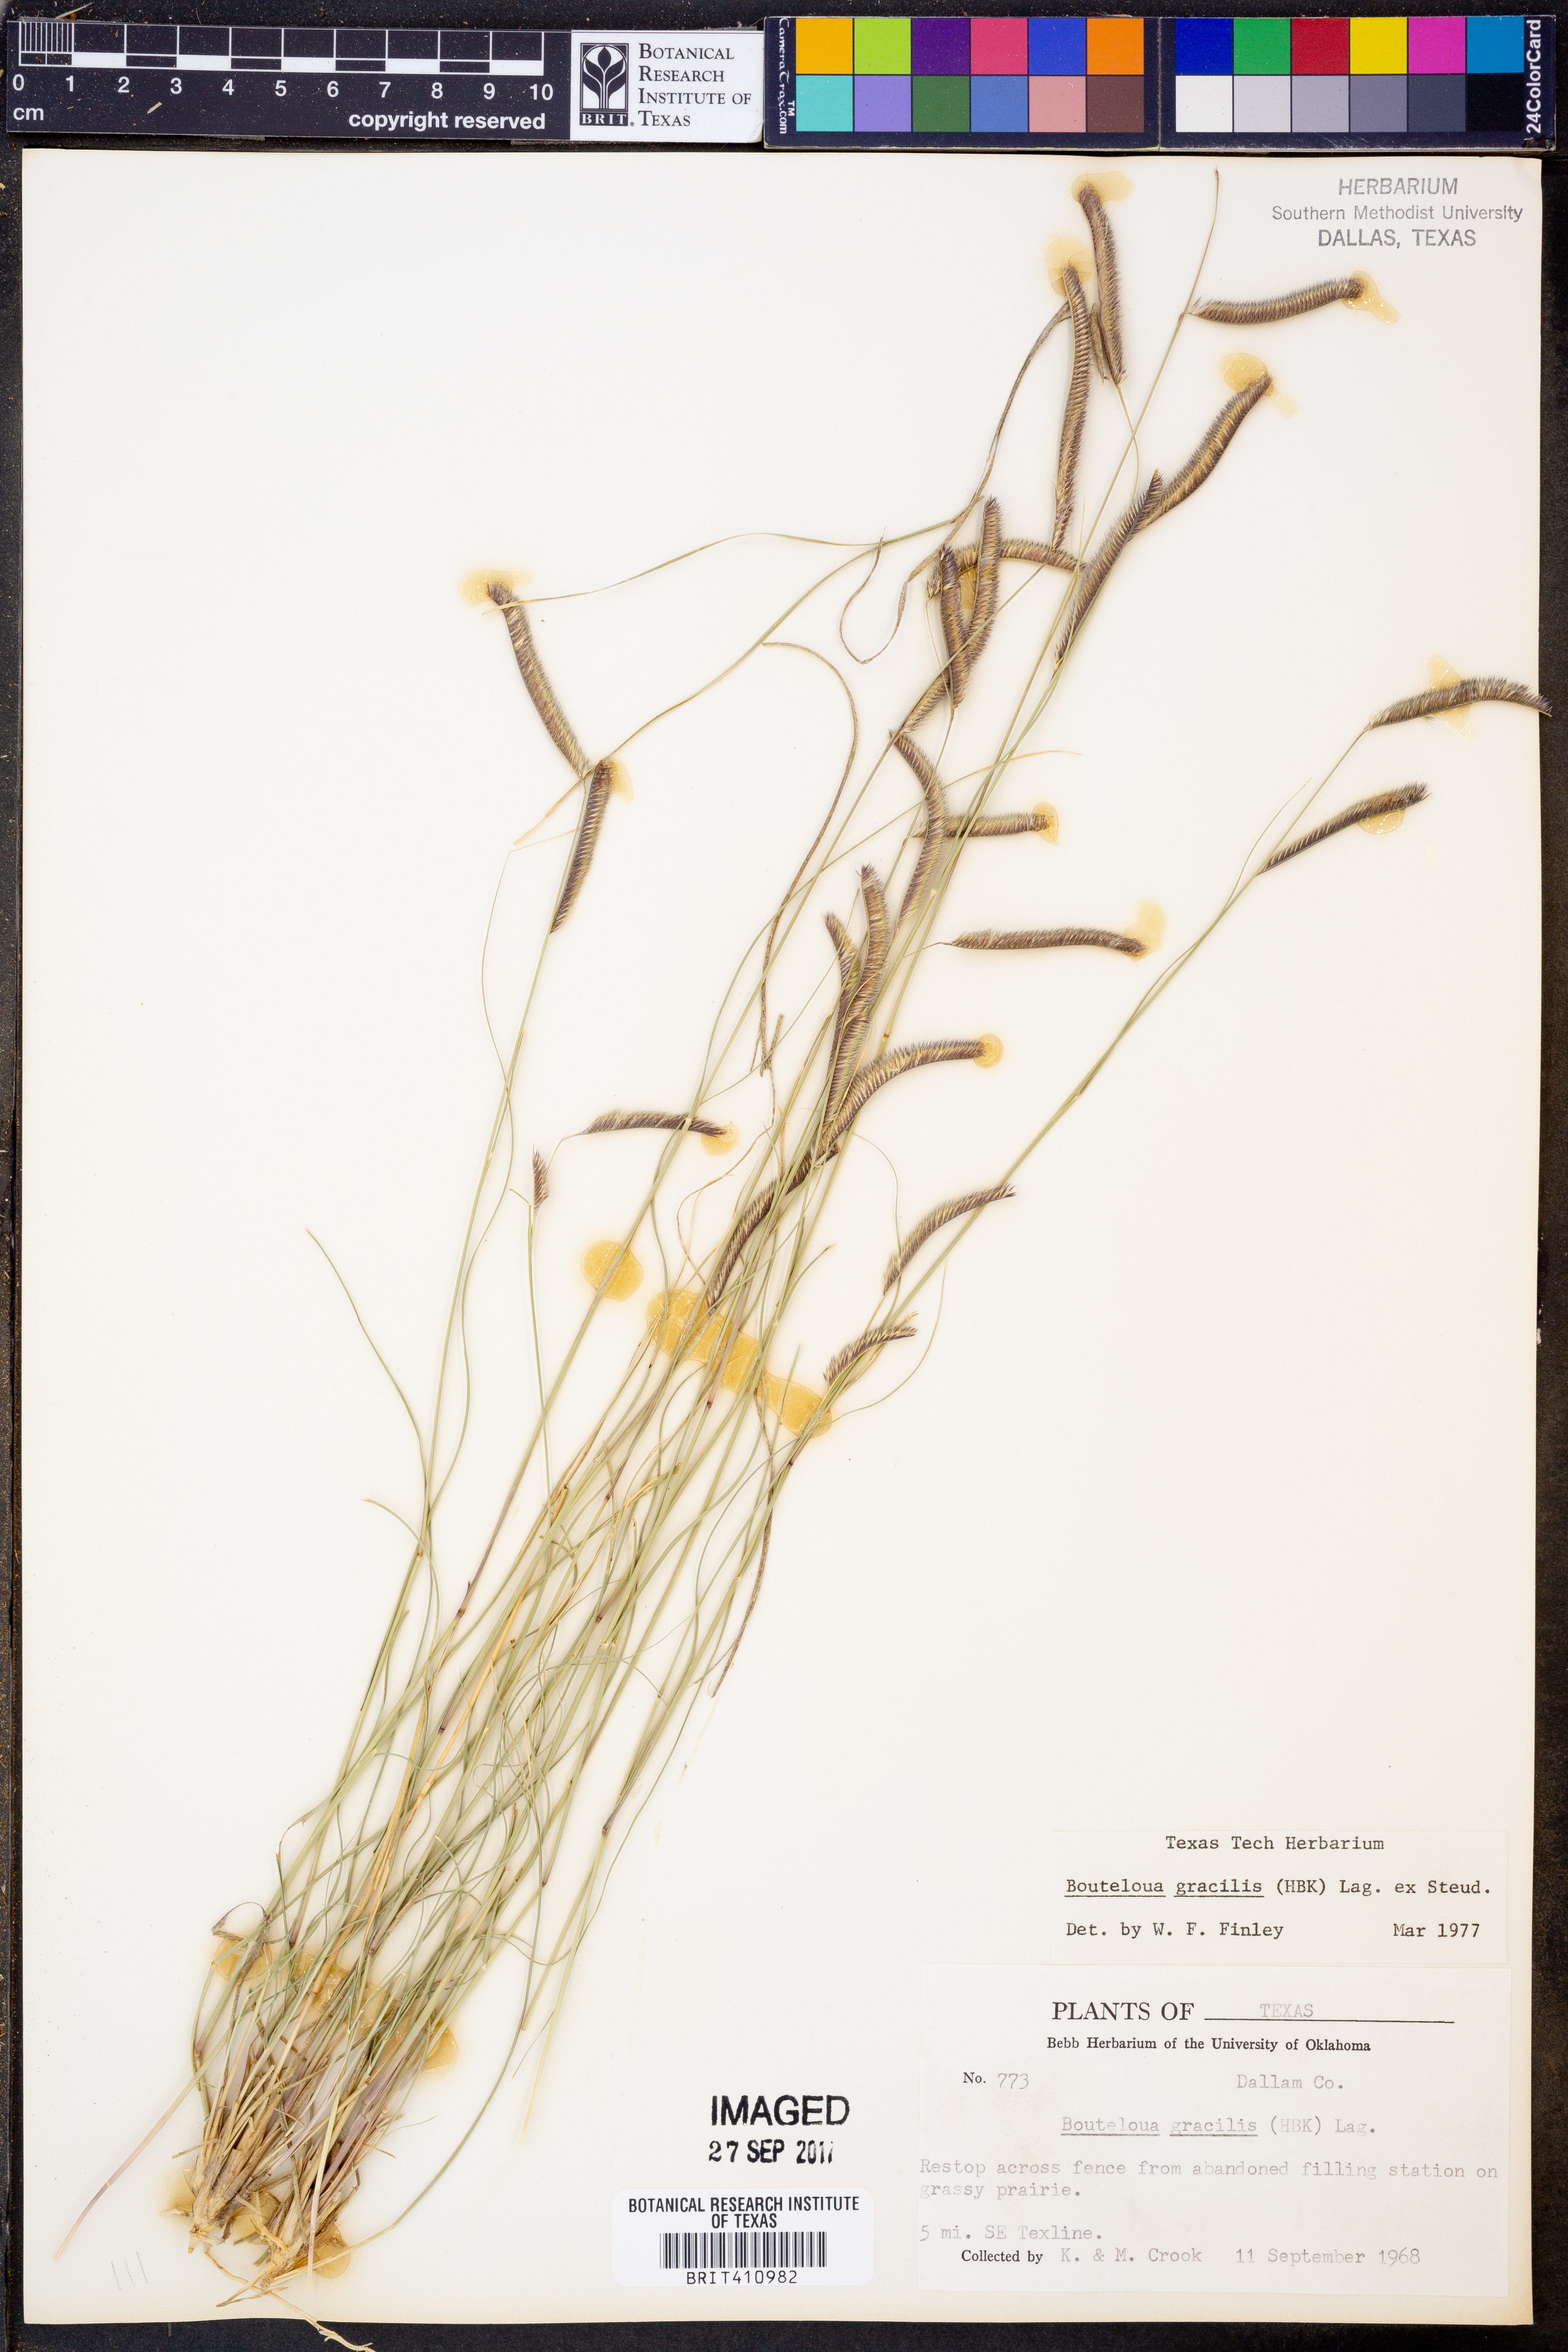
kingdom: Plantae
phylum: Tracheophyta
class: Liliopsida
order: Poales
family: Poaceae
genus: Bouteloua
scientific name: Bouteloua gracilis
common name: Blue grama
